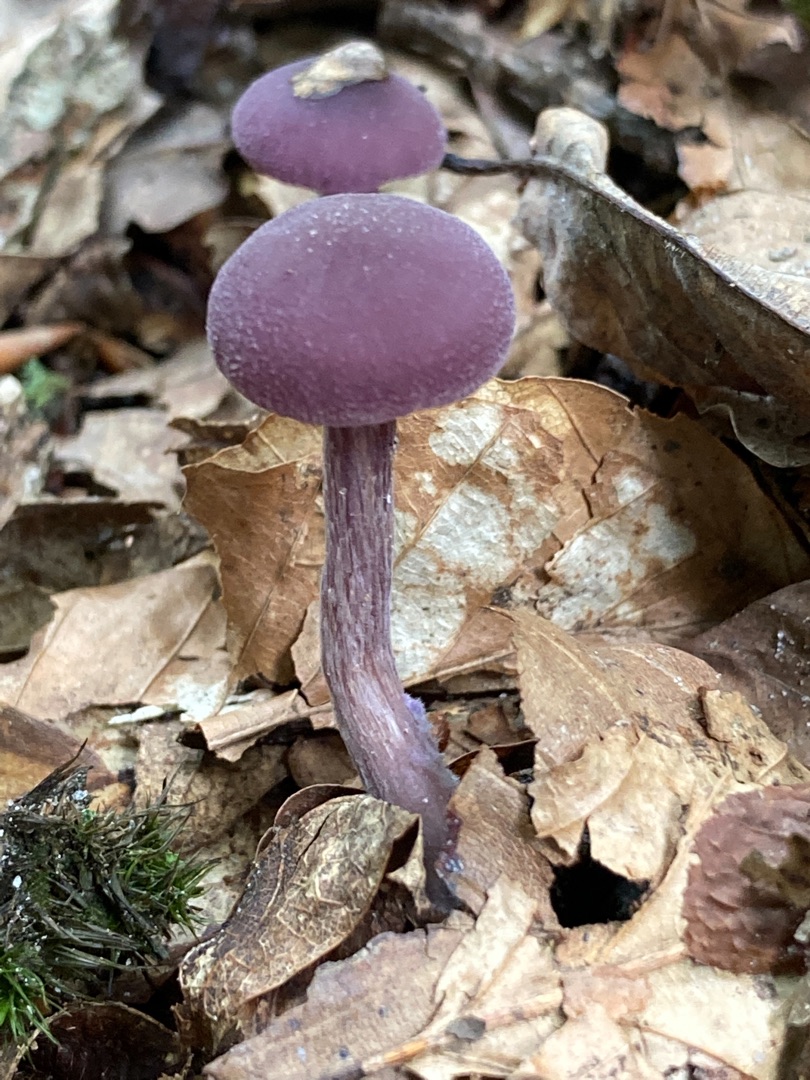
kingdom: Fungi
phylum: Basidiomycota
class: Agaricomycetes
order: Agaricales
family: Hydnangiaceae
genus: Laccaria
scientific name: Laccaria amethystina
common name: Violet ametysthat
